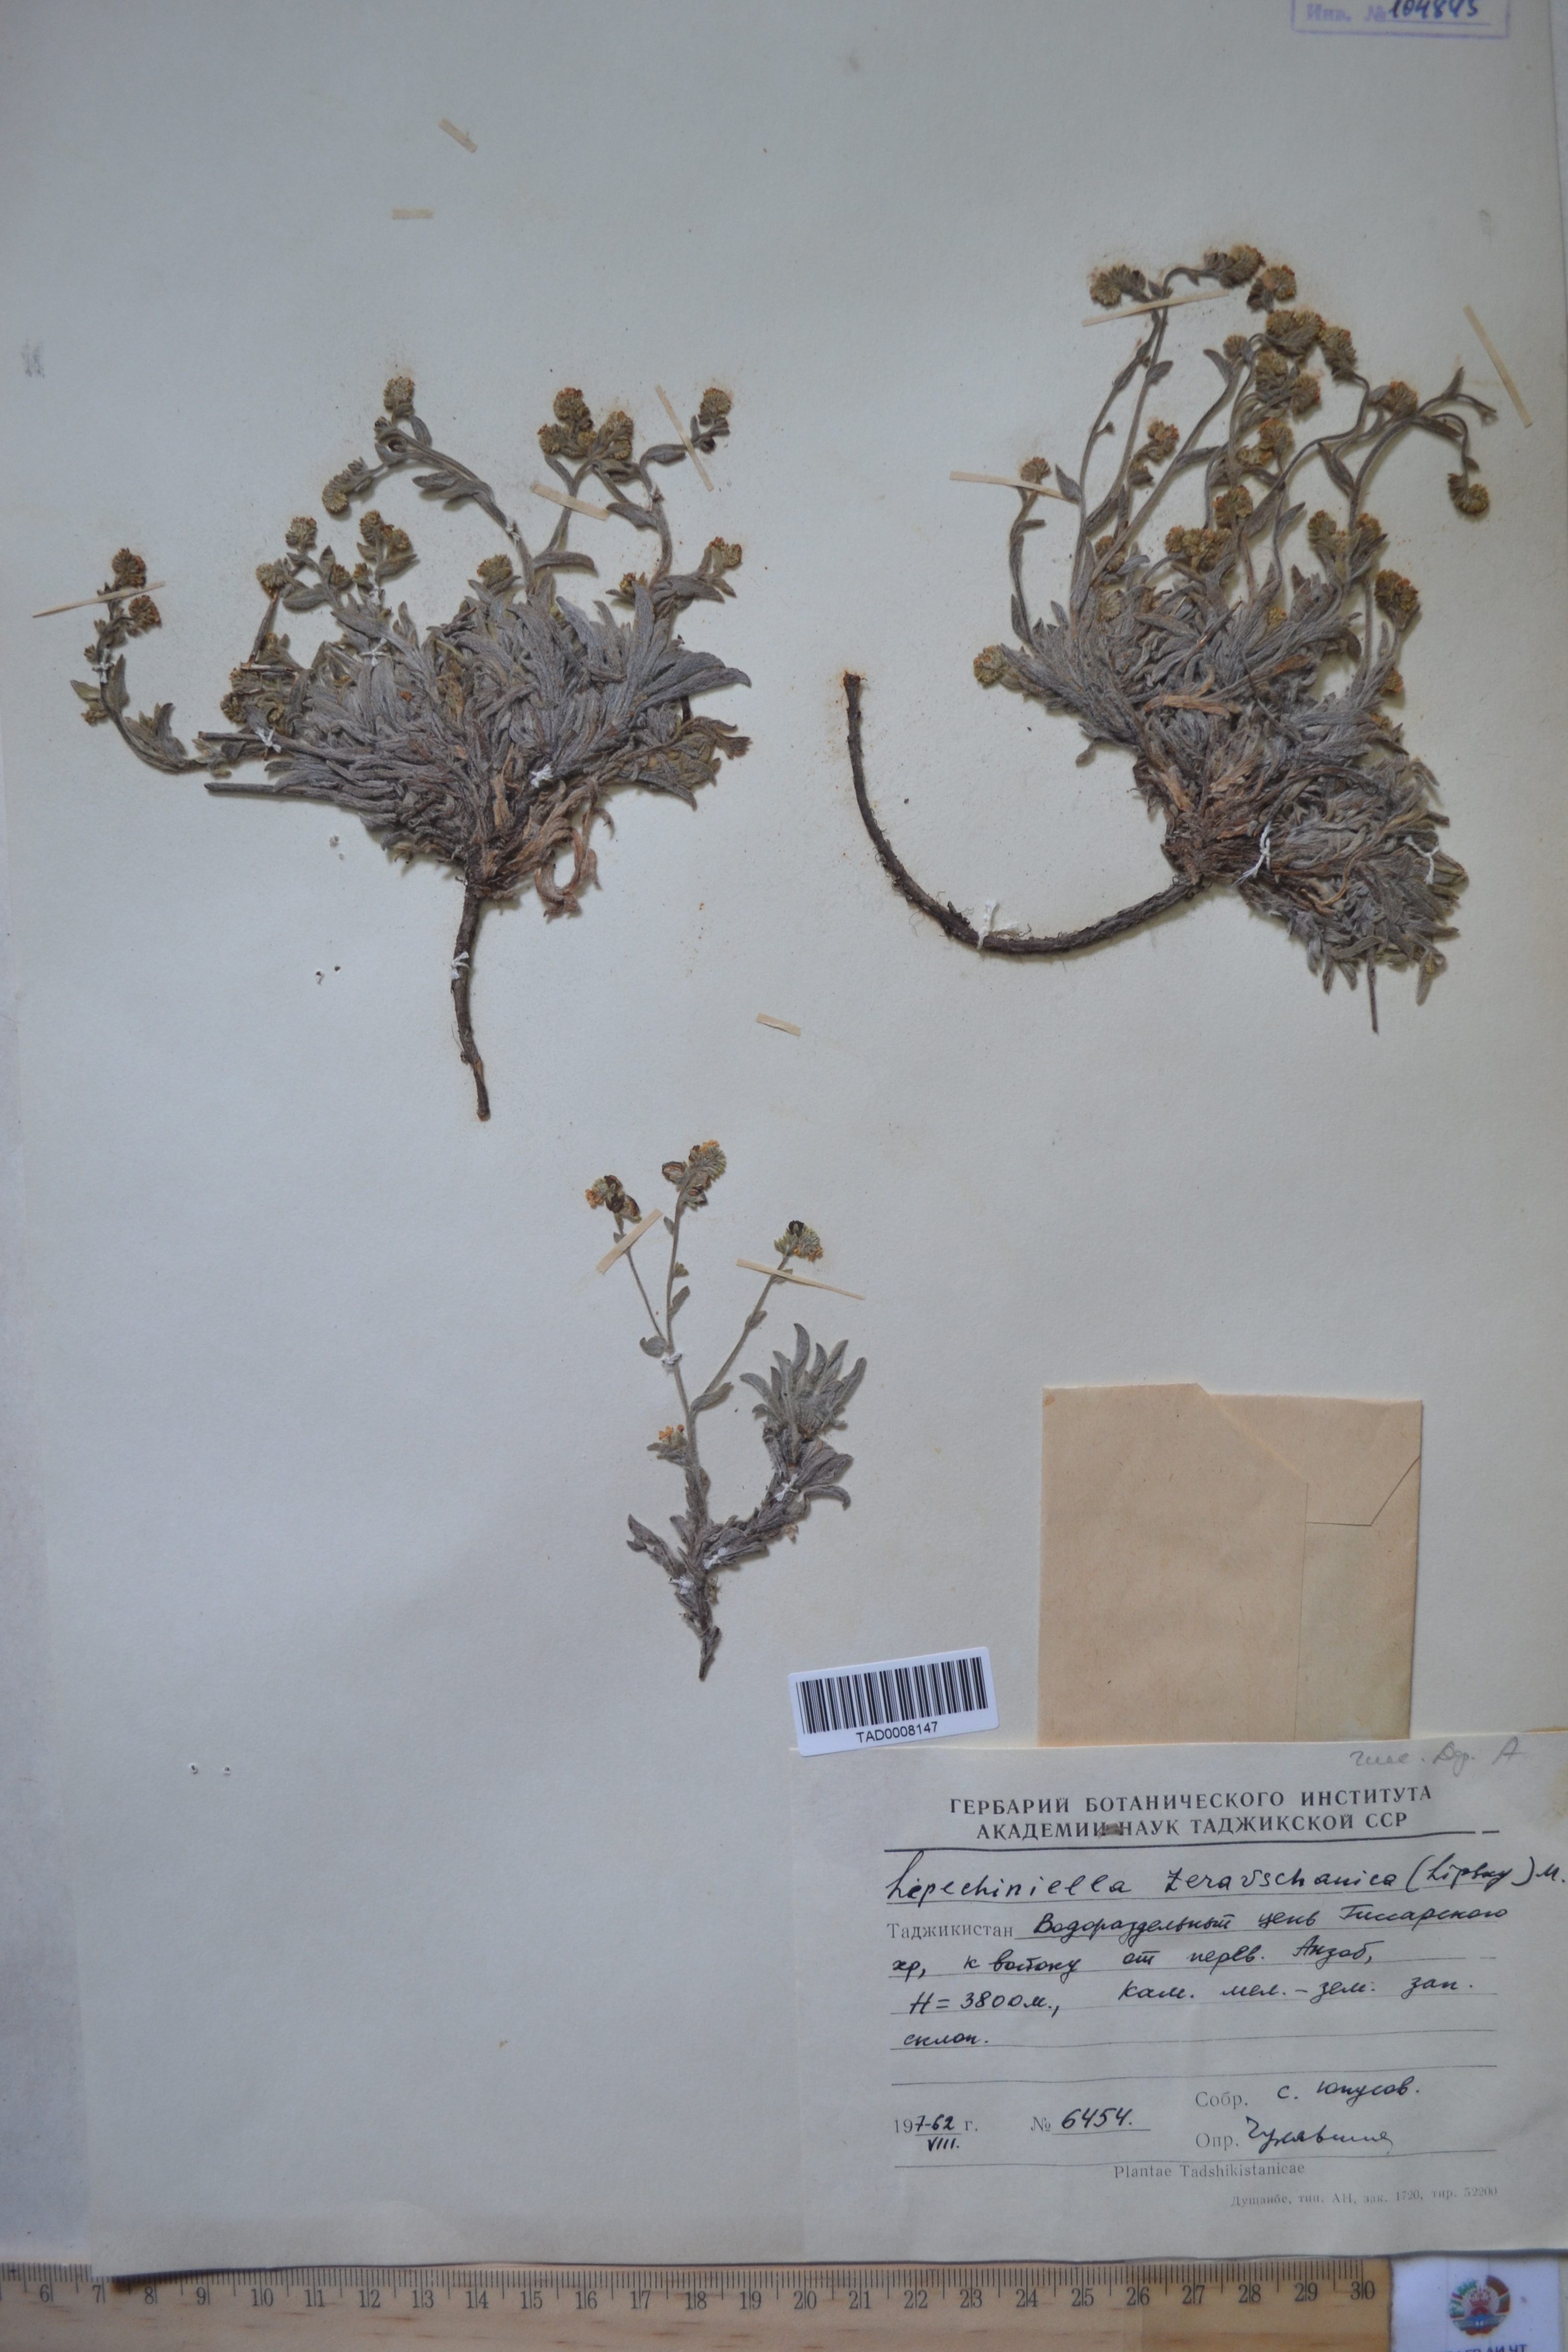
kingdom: Plantae
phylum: Tracheophyta
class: Magnoliopsida
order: Boraginales
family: Boraginaceae
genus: Lepechiniella
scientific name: Lepechiniella seravschanica
